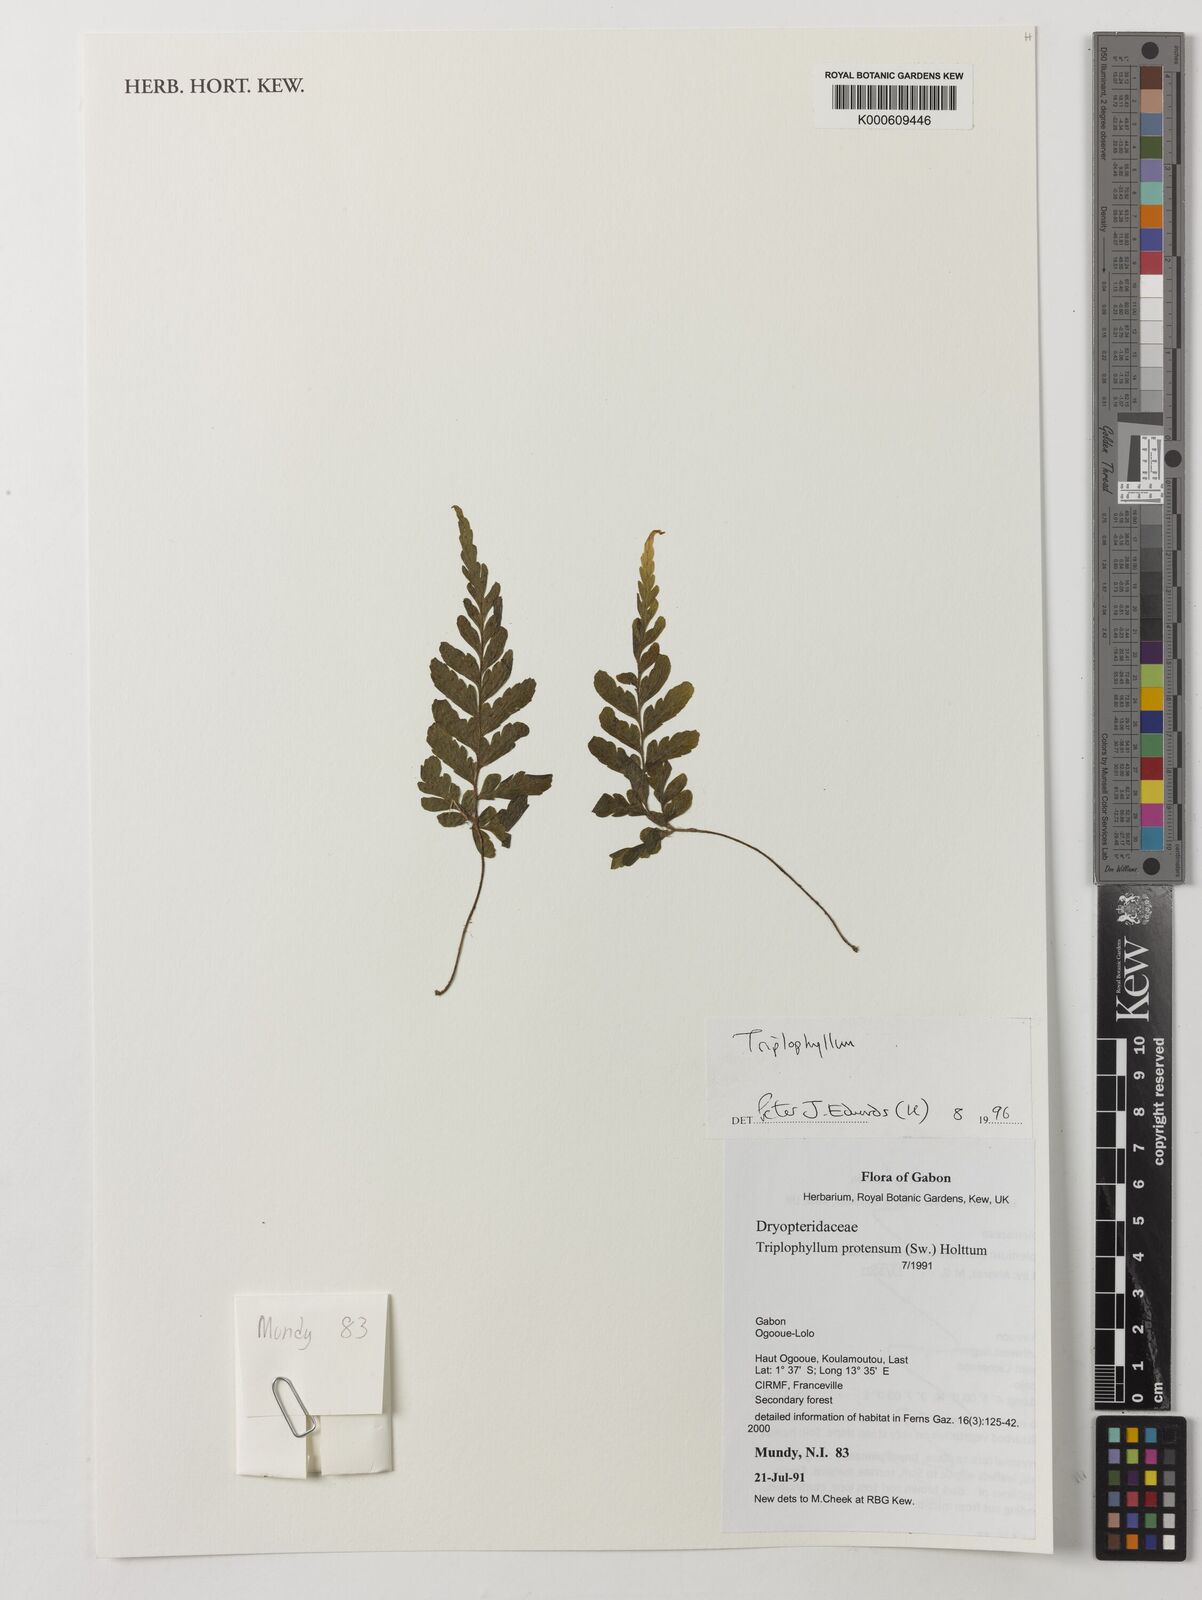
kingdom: Plantae
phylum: Tracheophyta
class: Polypodiopsida
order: Polypodiales
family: Tectariaceae
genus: Triplophyllum
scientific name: Triplophyllum protensum
